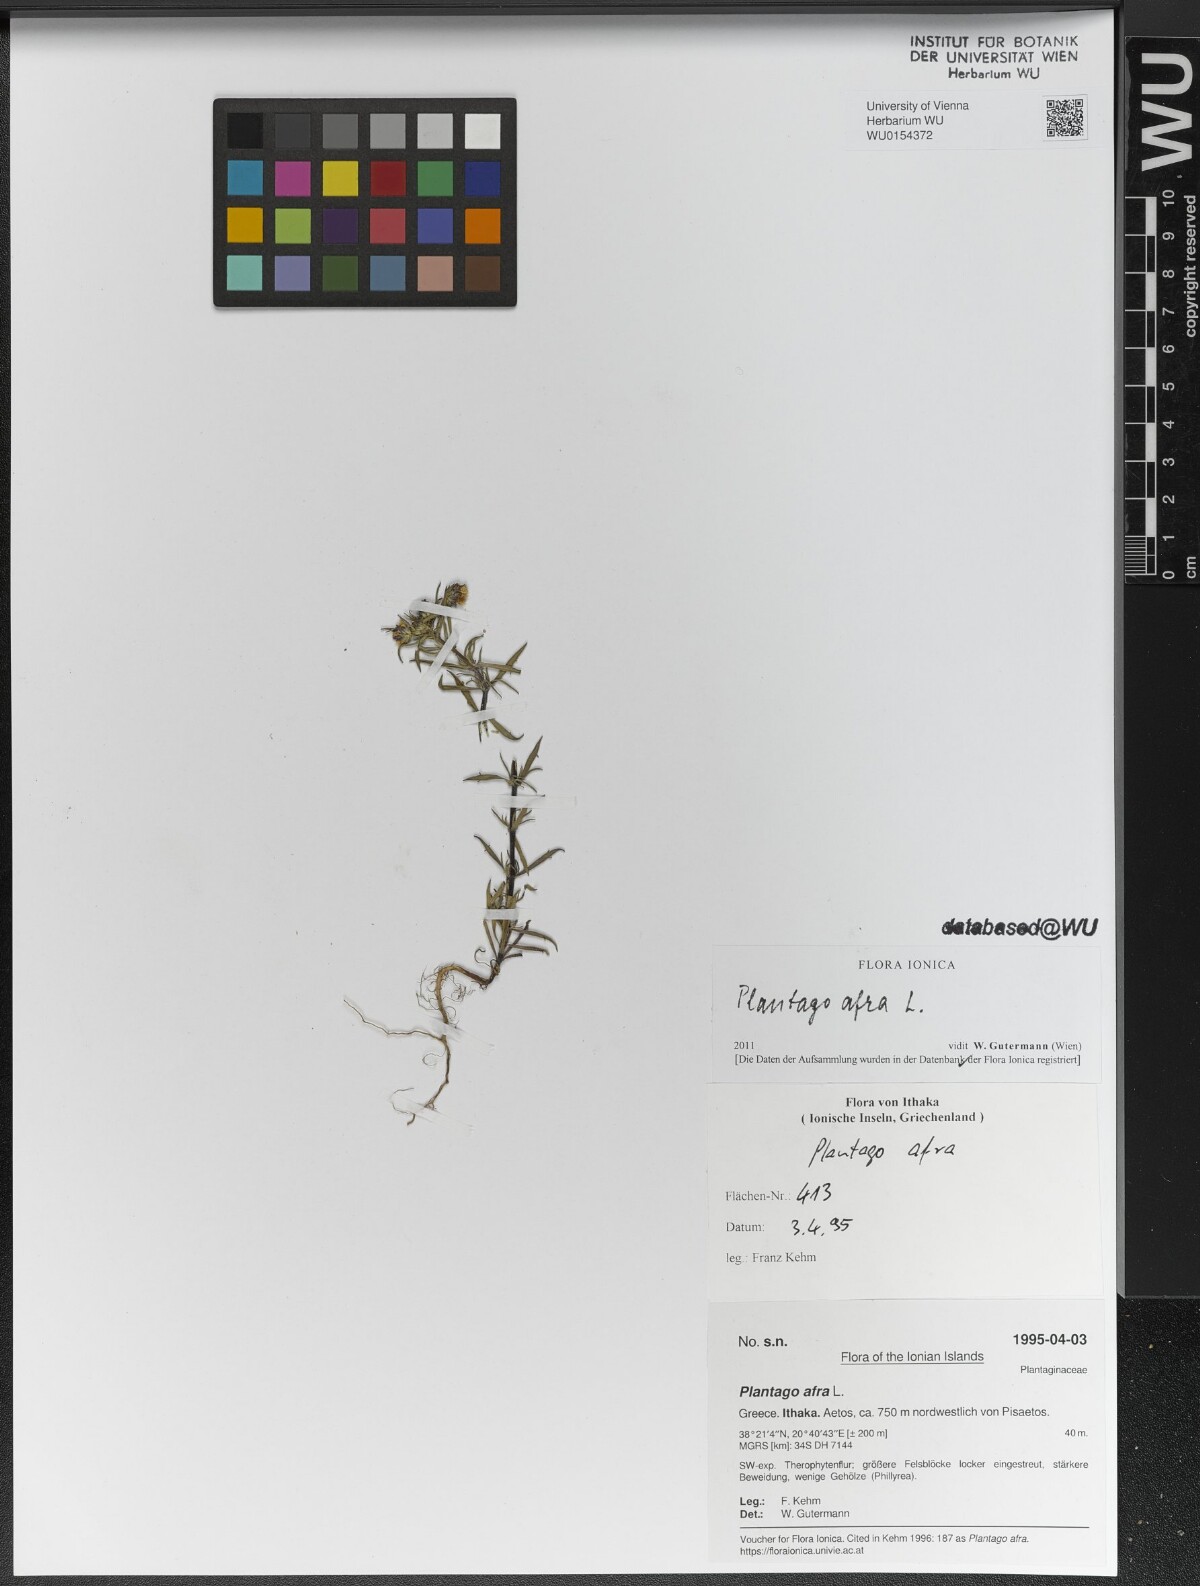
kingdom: Plantae
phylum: Tracheophyta
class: Magnoliopsida
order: Lamiales
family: Plantaginaceae
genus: Plantago
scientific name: Plantago afra
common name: Glandular plantain
